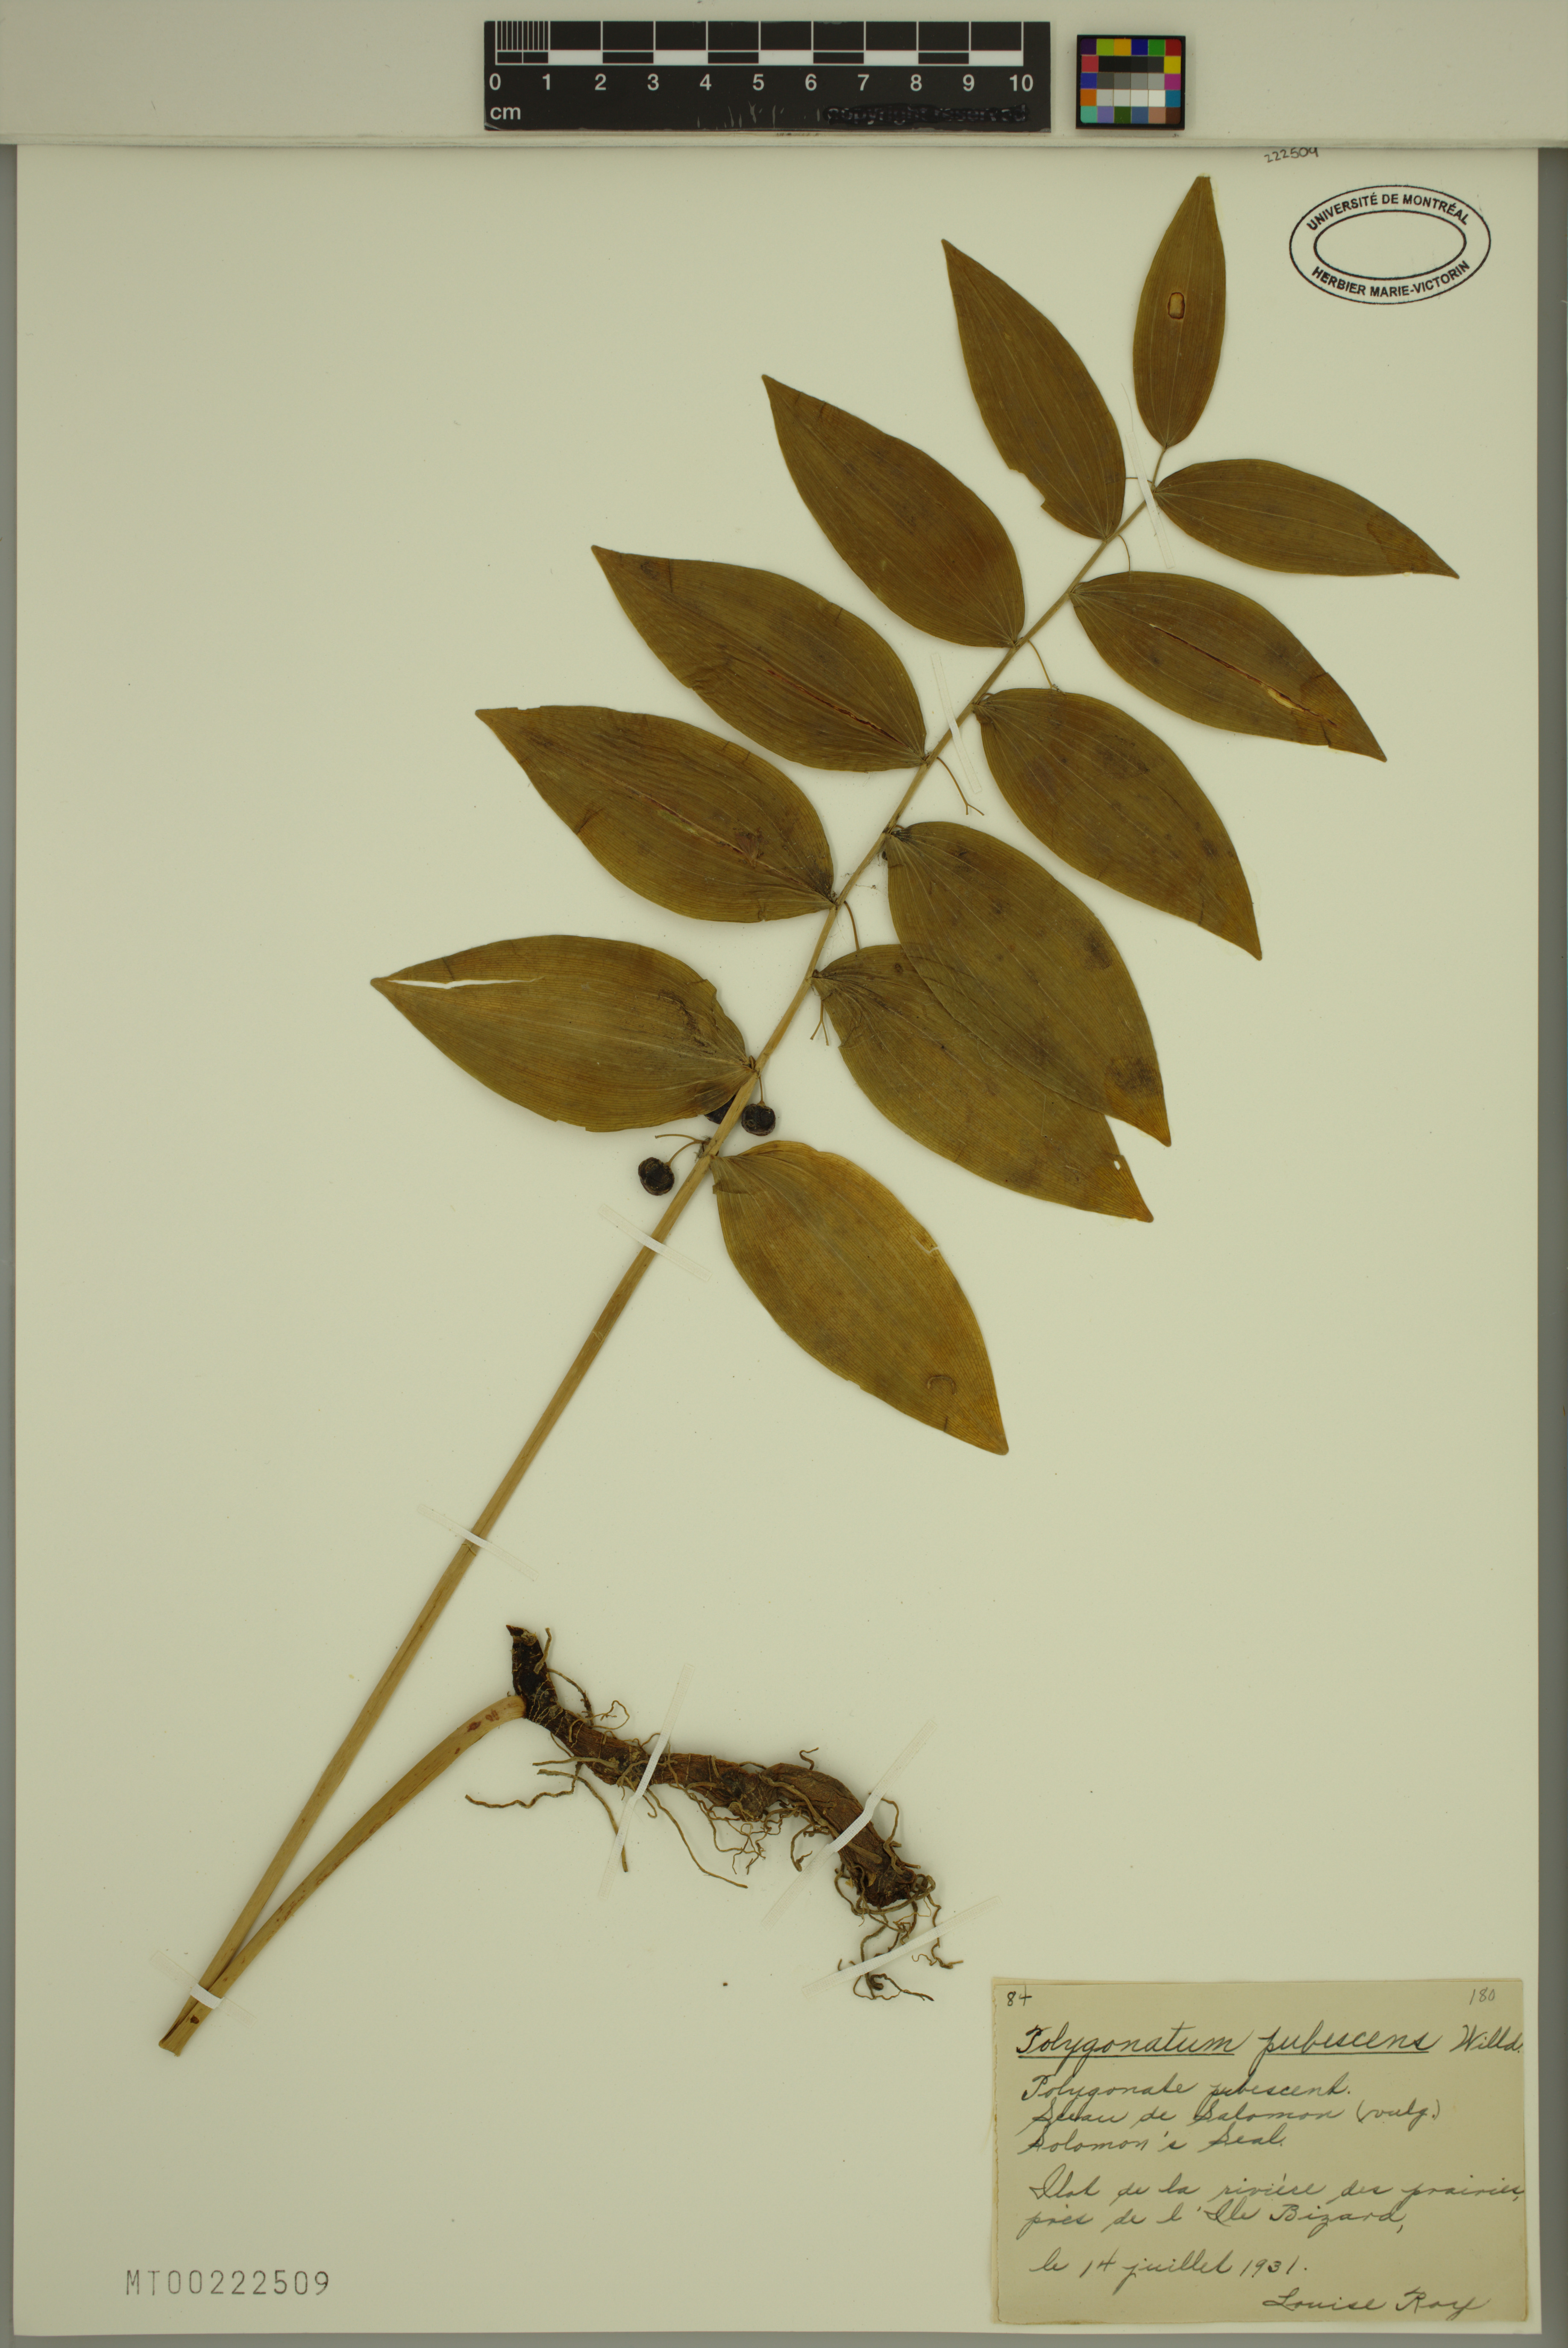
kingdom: Plantae
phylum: Tracheophyta
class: Liliopsida
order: Asparagales
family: Asparagaceae
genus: Polygonatum
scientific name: Polygonatum pubescens
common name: Downy solomon's seal
